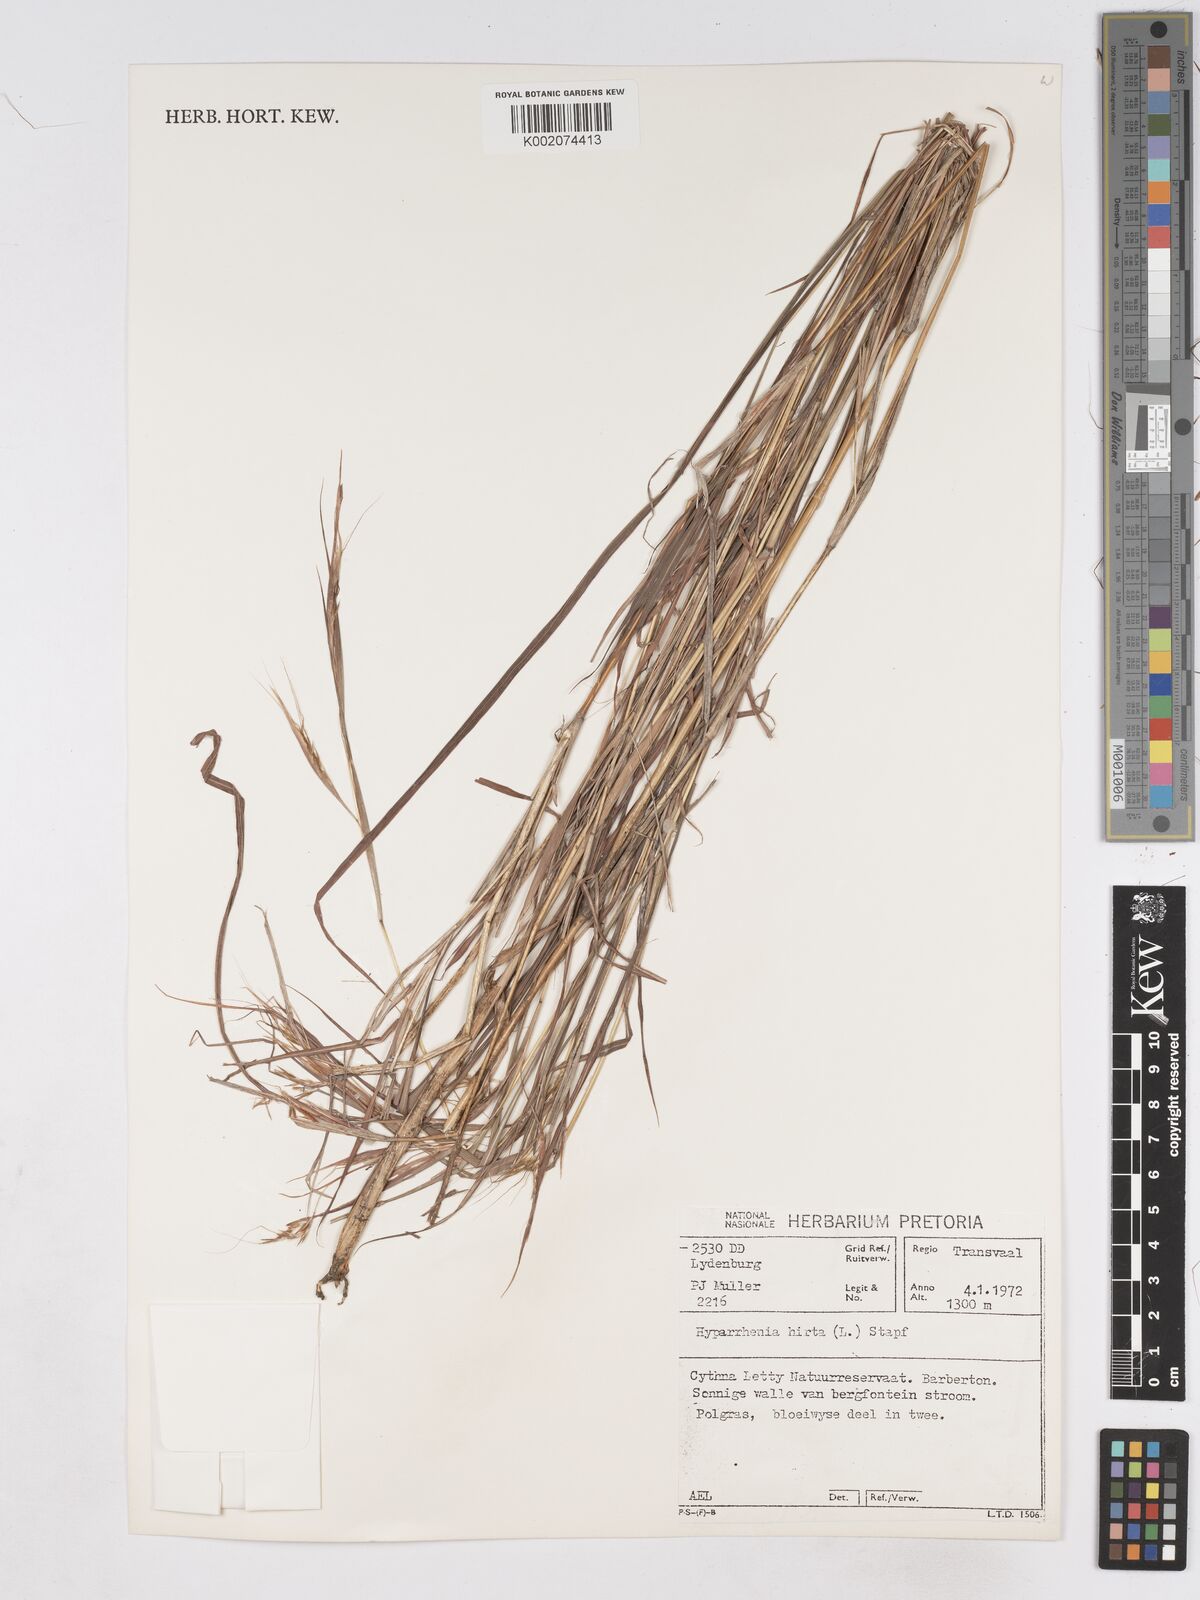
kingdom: Plantae
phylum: Tracheophyta
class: Liliopsida
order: Poales
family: Poaceae
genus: Hyparrhenia
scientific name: Hyparrhenia hirta
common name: Thatching grass
